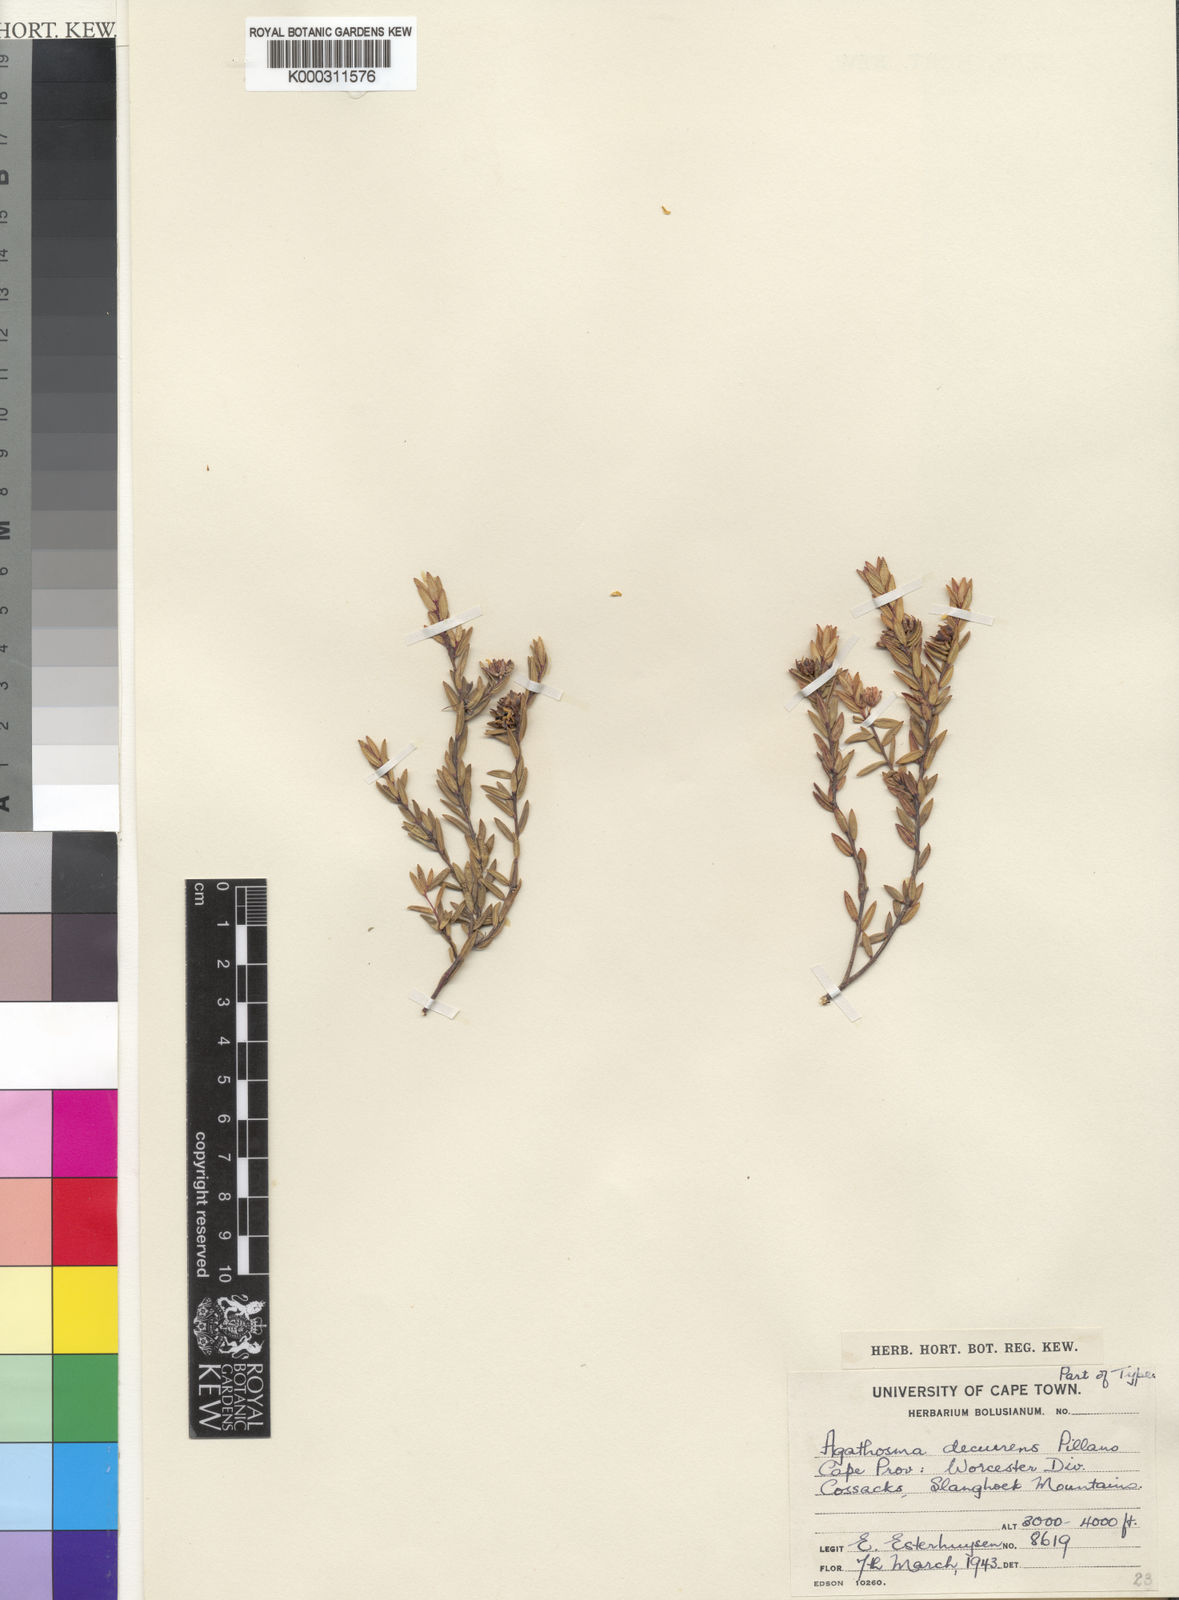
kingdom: Plantae
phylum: Tracheophyta
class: Magnoliopsida
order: Sapindales
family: Rutaceae
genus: Agathosma
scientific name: Agathosma decurrens
